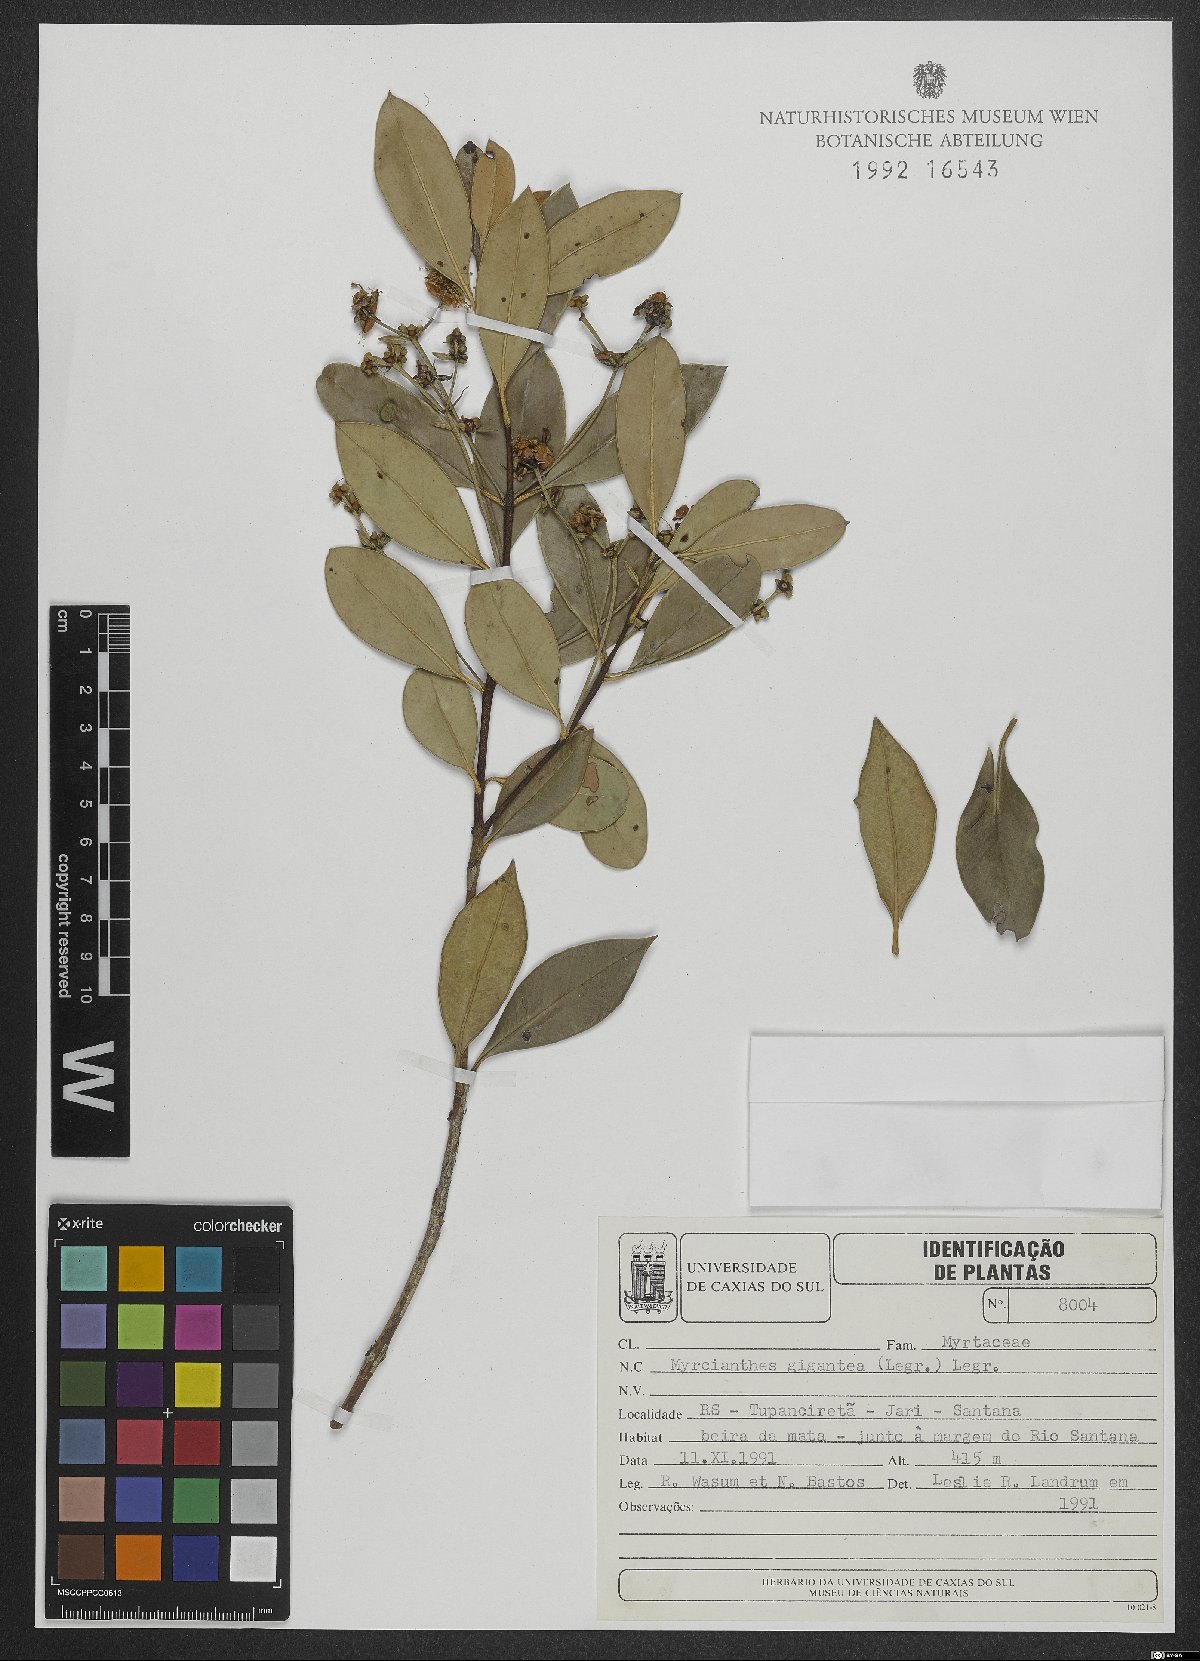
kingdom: Plantae
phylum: Tracheophyta
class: Magnoliopsida
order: Myrtales
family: Myrtaceae
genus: Myrcianthes
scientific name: Myrcianthes gigantea
